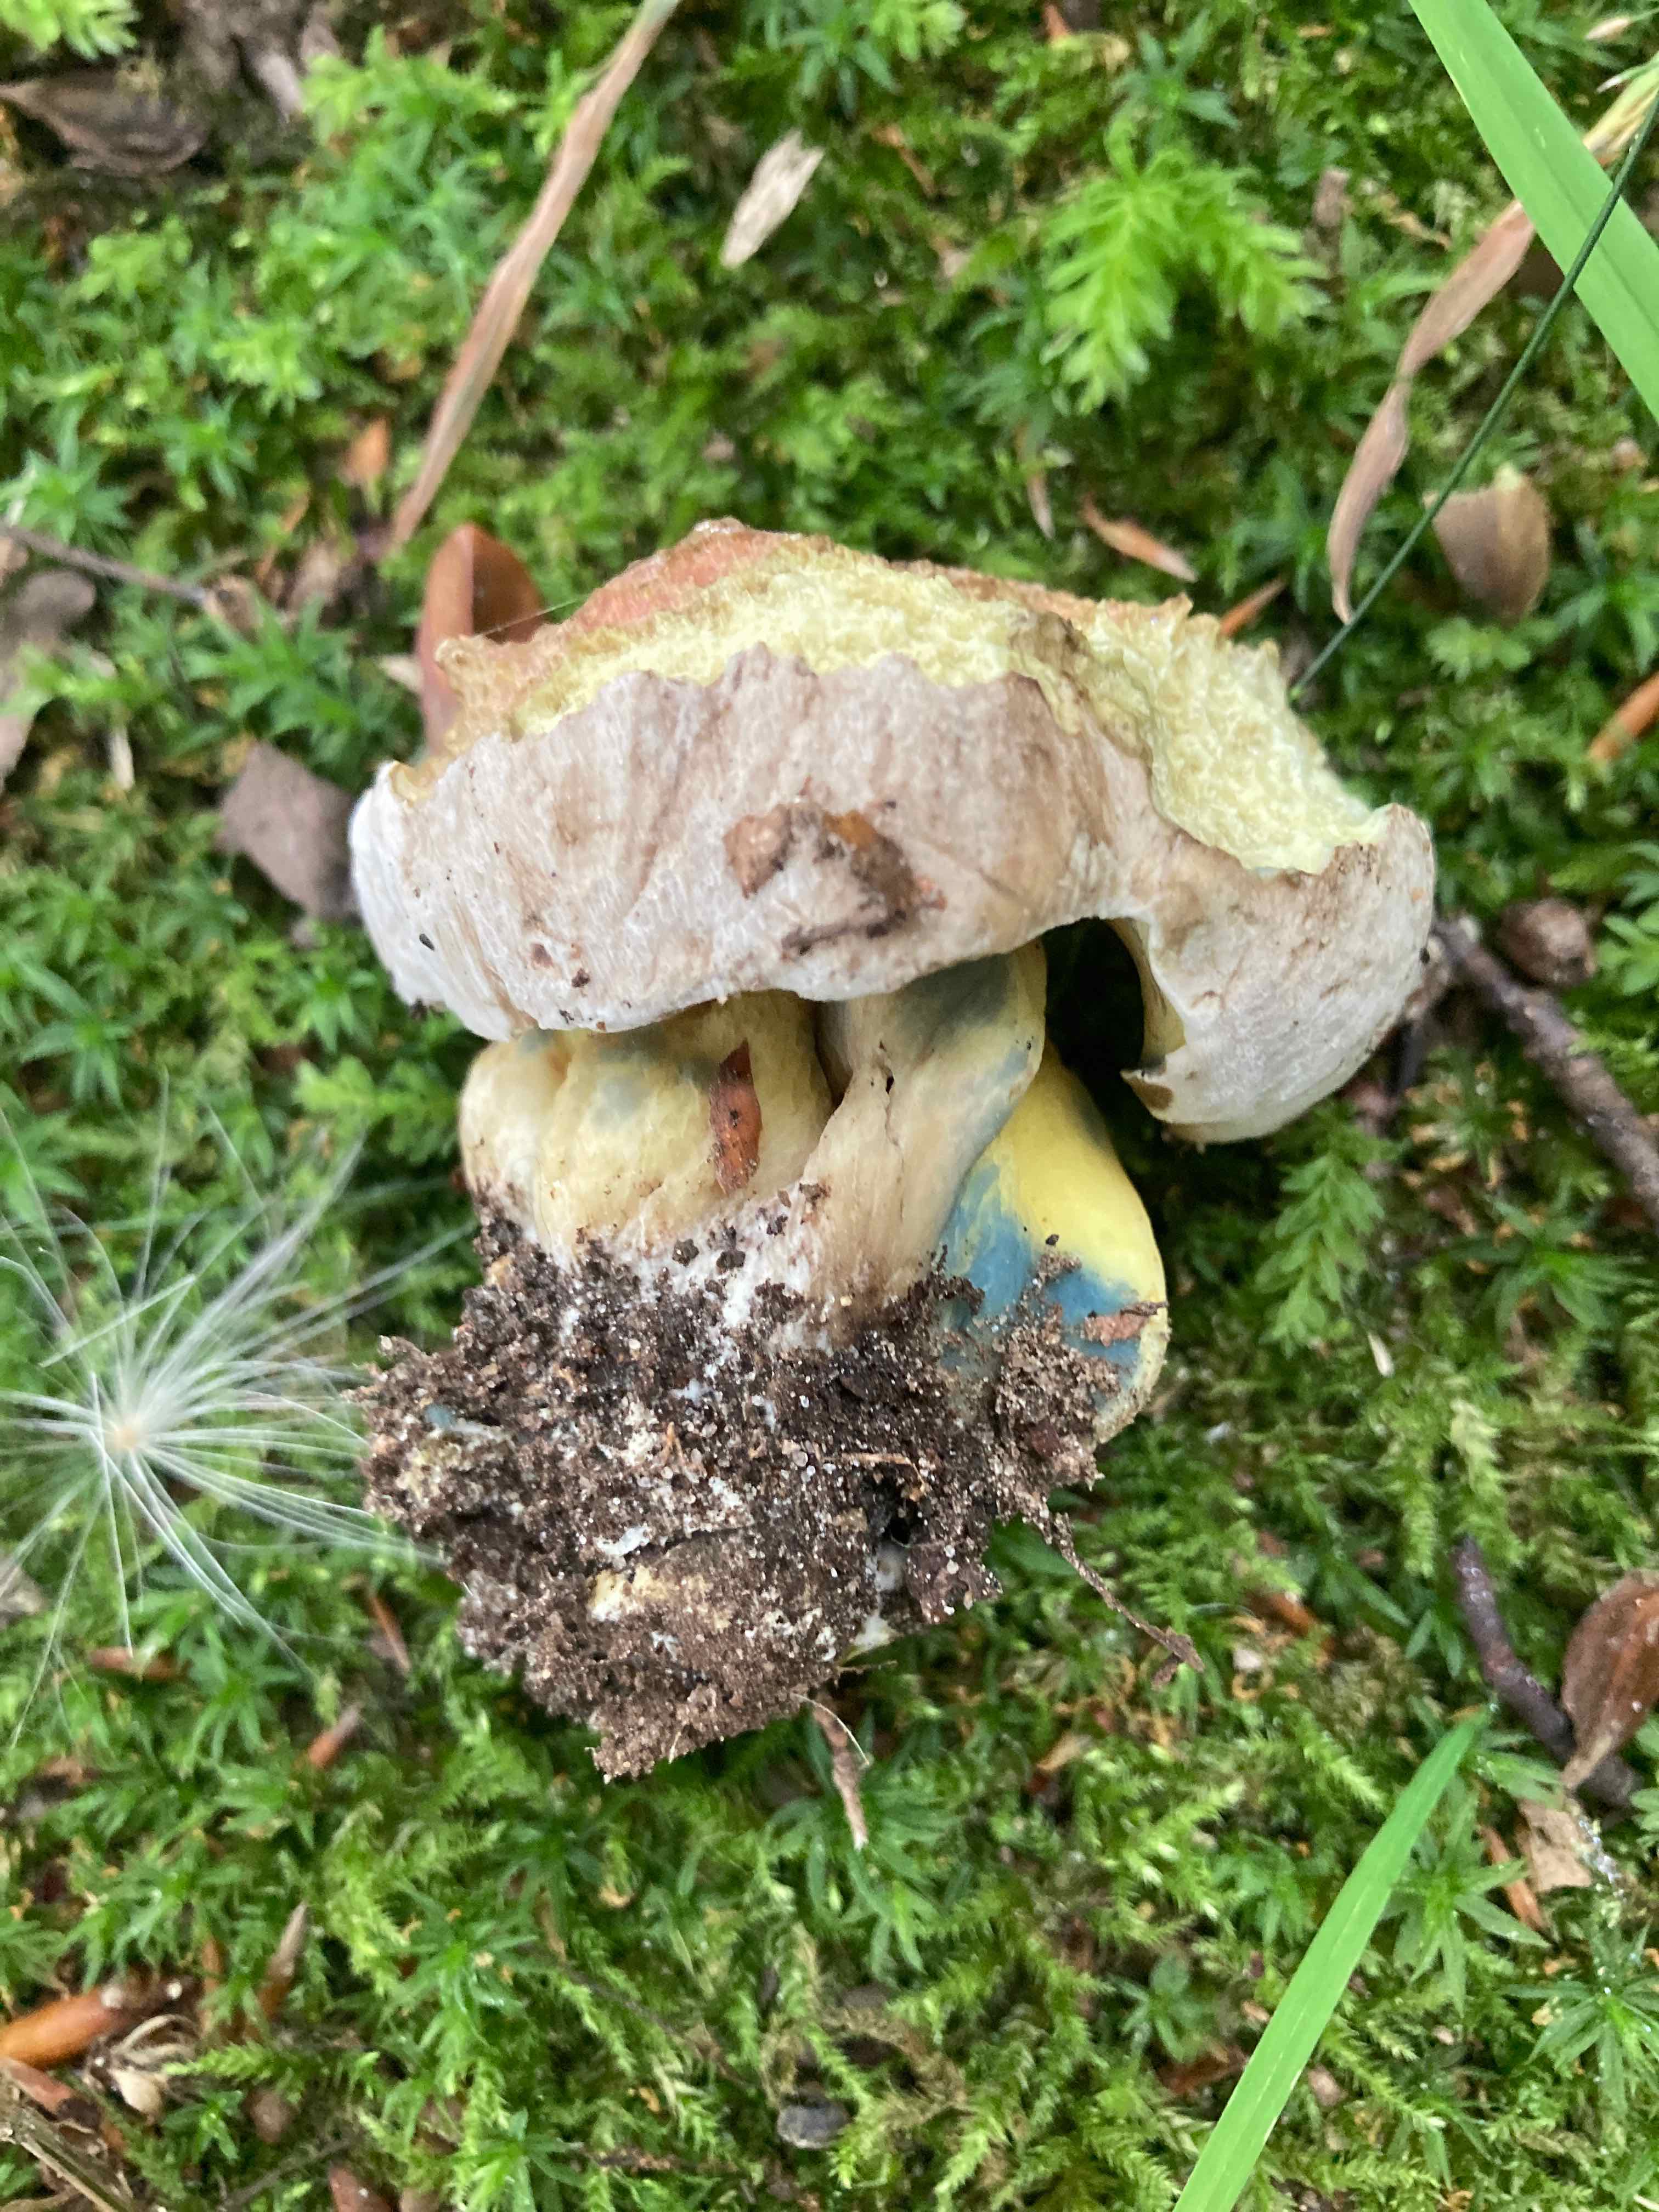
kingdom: Fungi
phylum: Basidiomycota
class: Agaricomycetes
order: Boletales
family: Boletaceae
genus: Caloboletus
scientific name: Caloboletus radicans
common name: rod-rørhat
